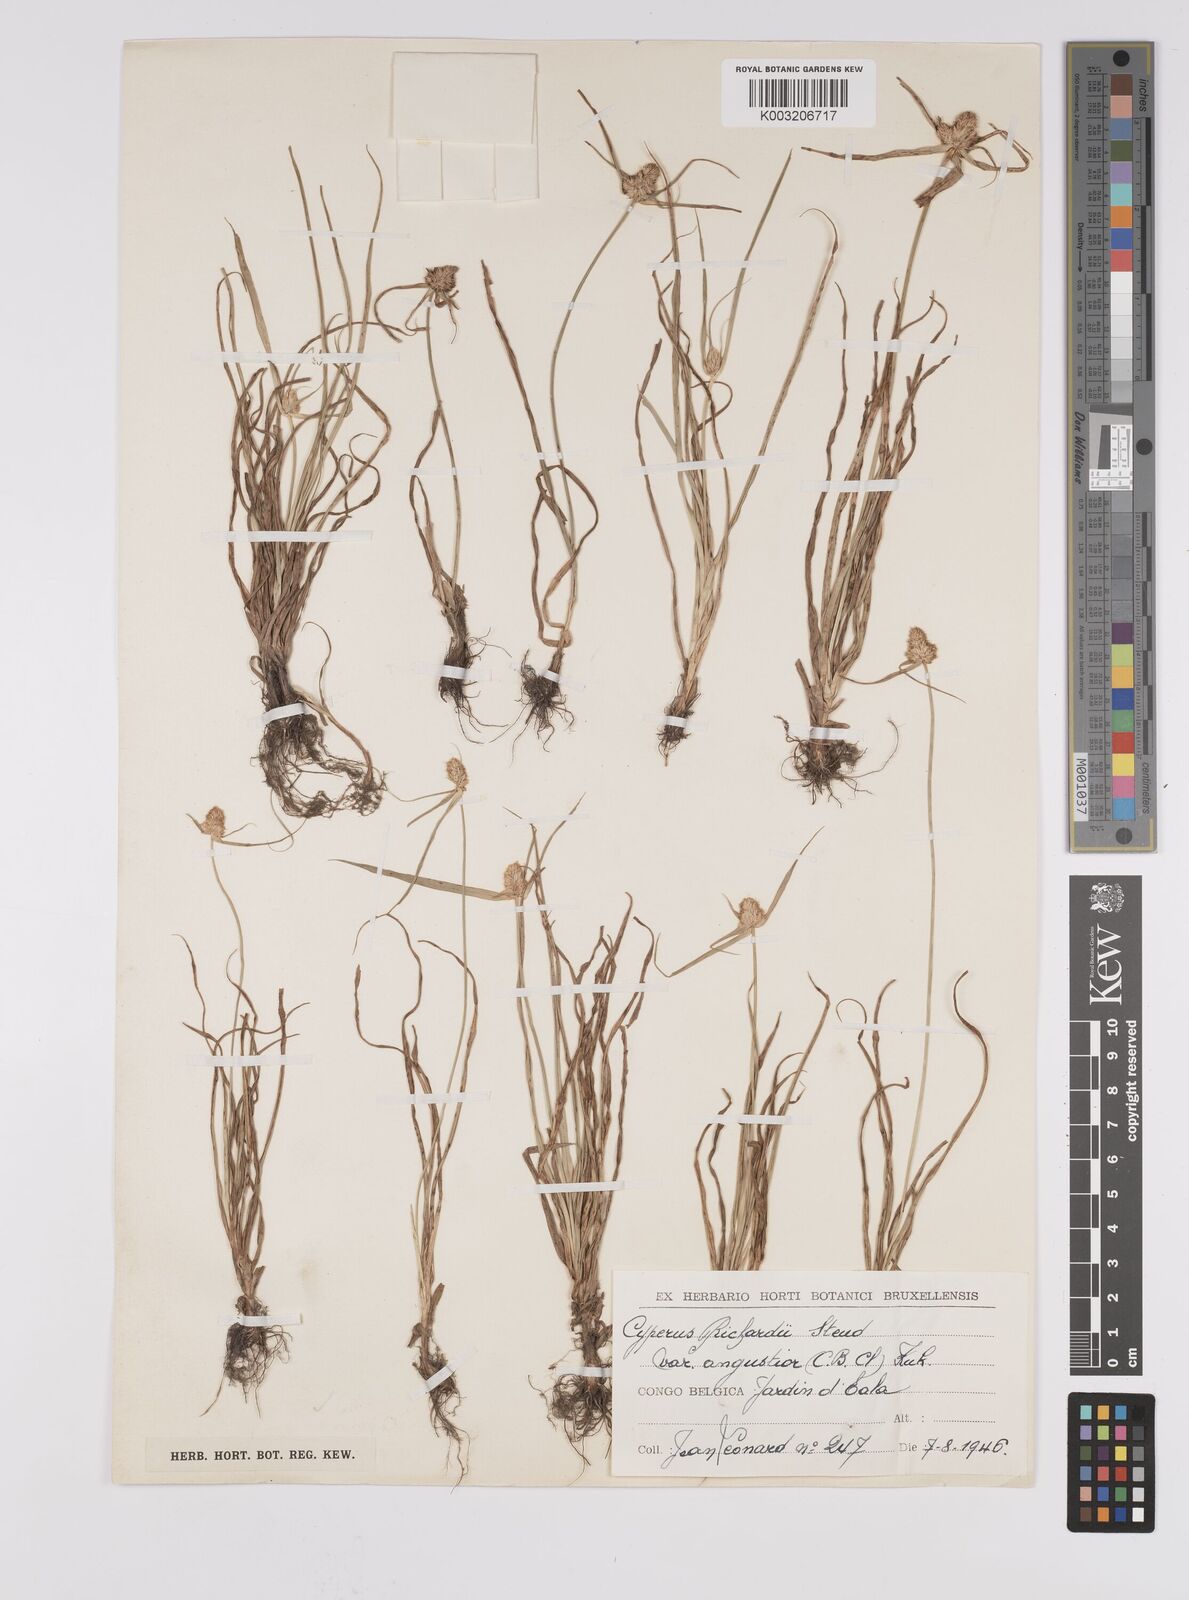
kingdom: Plantae
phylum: Tracheophyta
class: Liliopsida
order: Poales
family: Cyperaceae
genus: Cyperus
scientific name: Cyperus conglobatus
